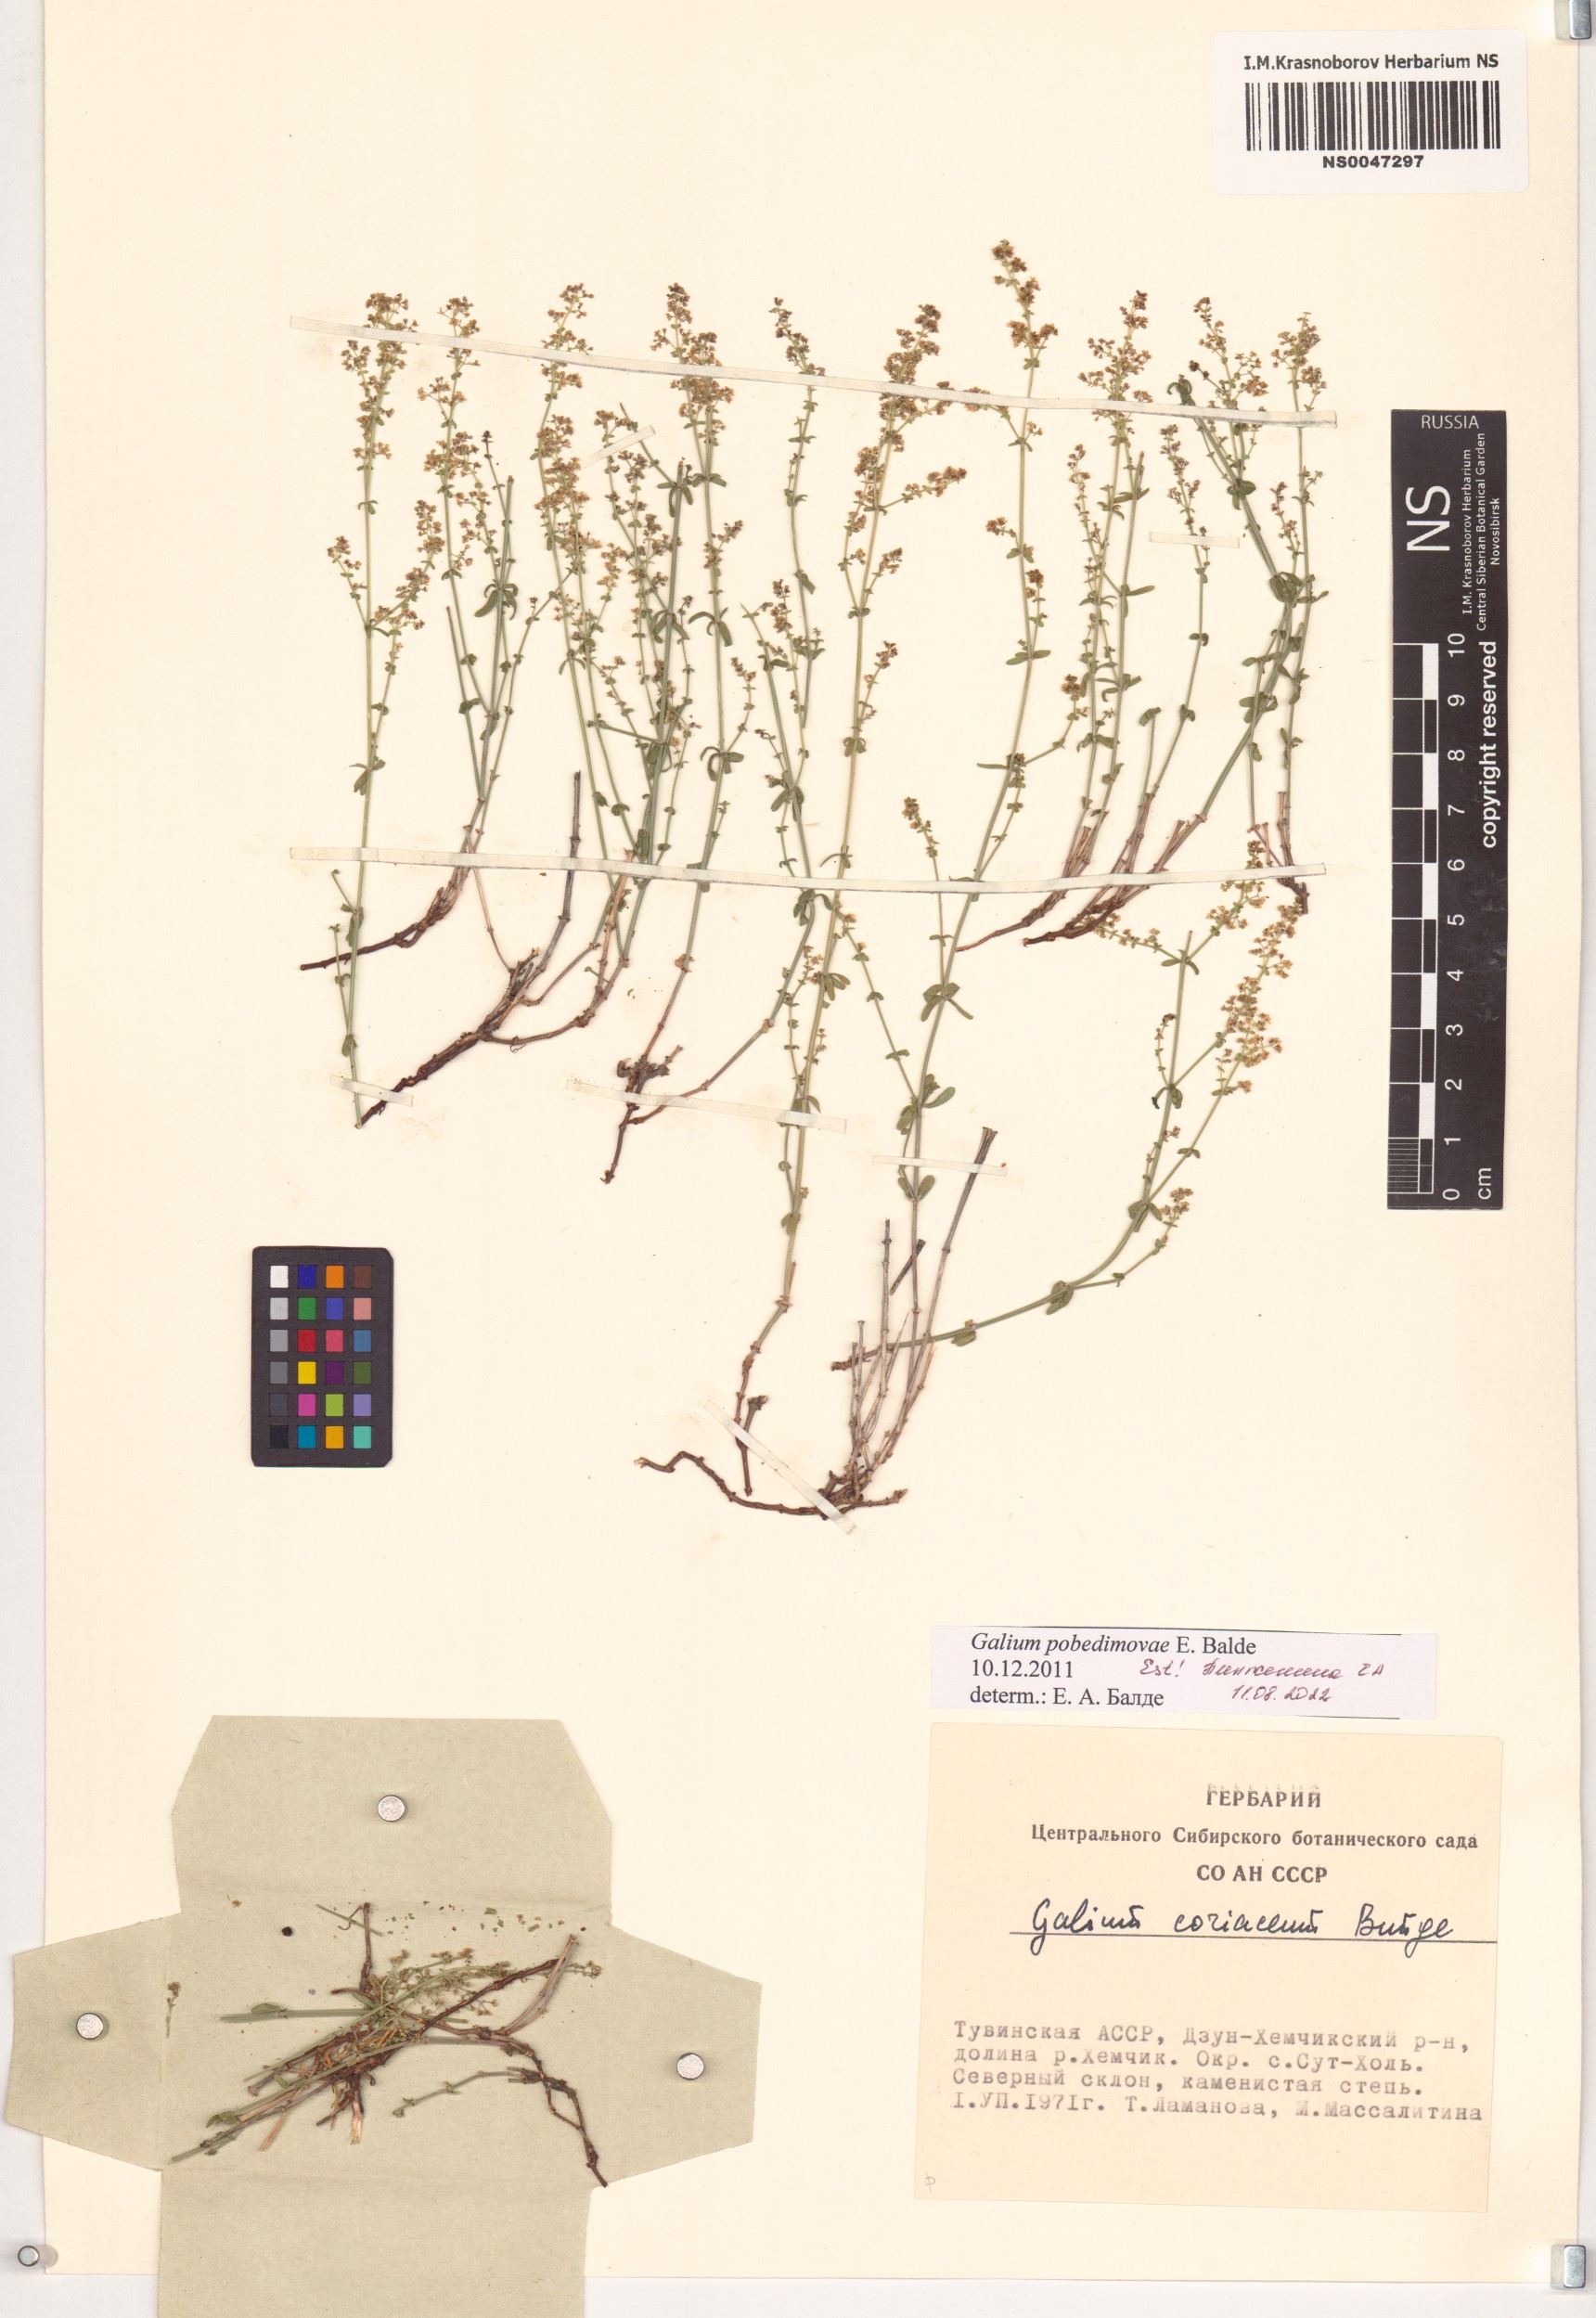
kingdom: Plantae
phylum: Tracheophyta
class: Magnoliopsida
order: Gentianales
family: Rubiaceae
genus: Galium
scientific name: Galium pobedimovae
